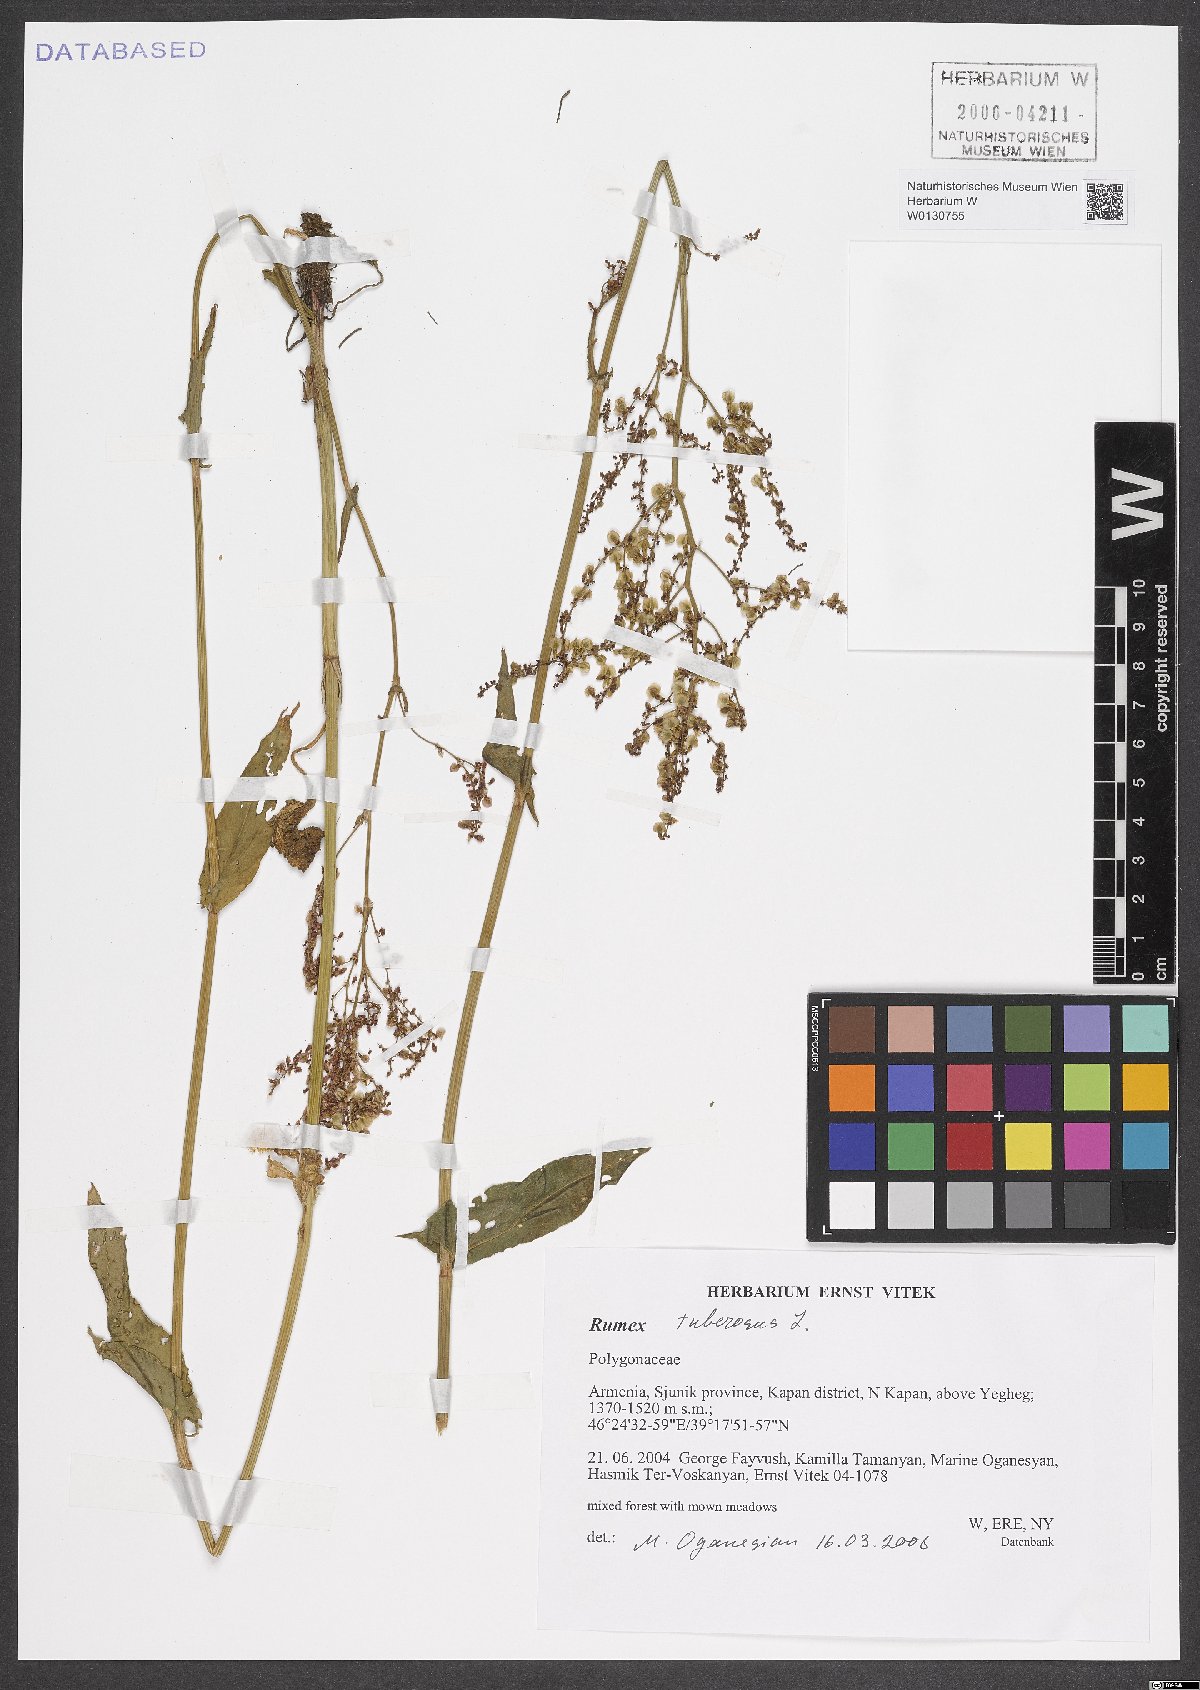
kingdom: Plantae
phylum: Tracheophyta
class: Magnoliopsida
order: Caryophyllales
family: Polygonaceae
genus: Rumex
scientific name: Rumex tuberosus
